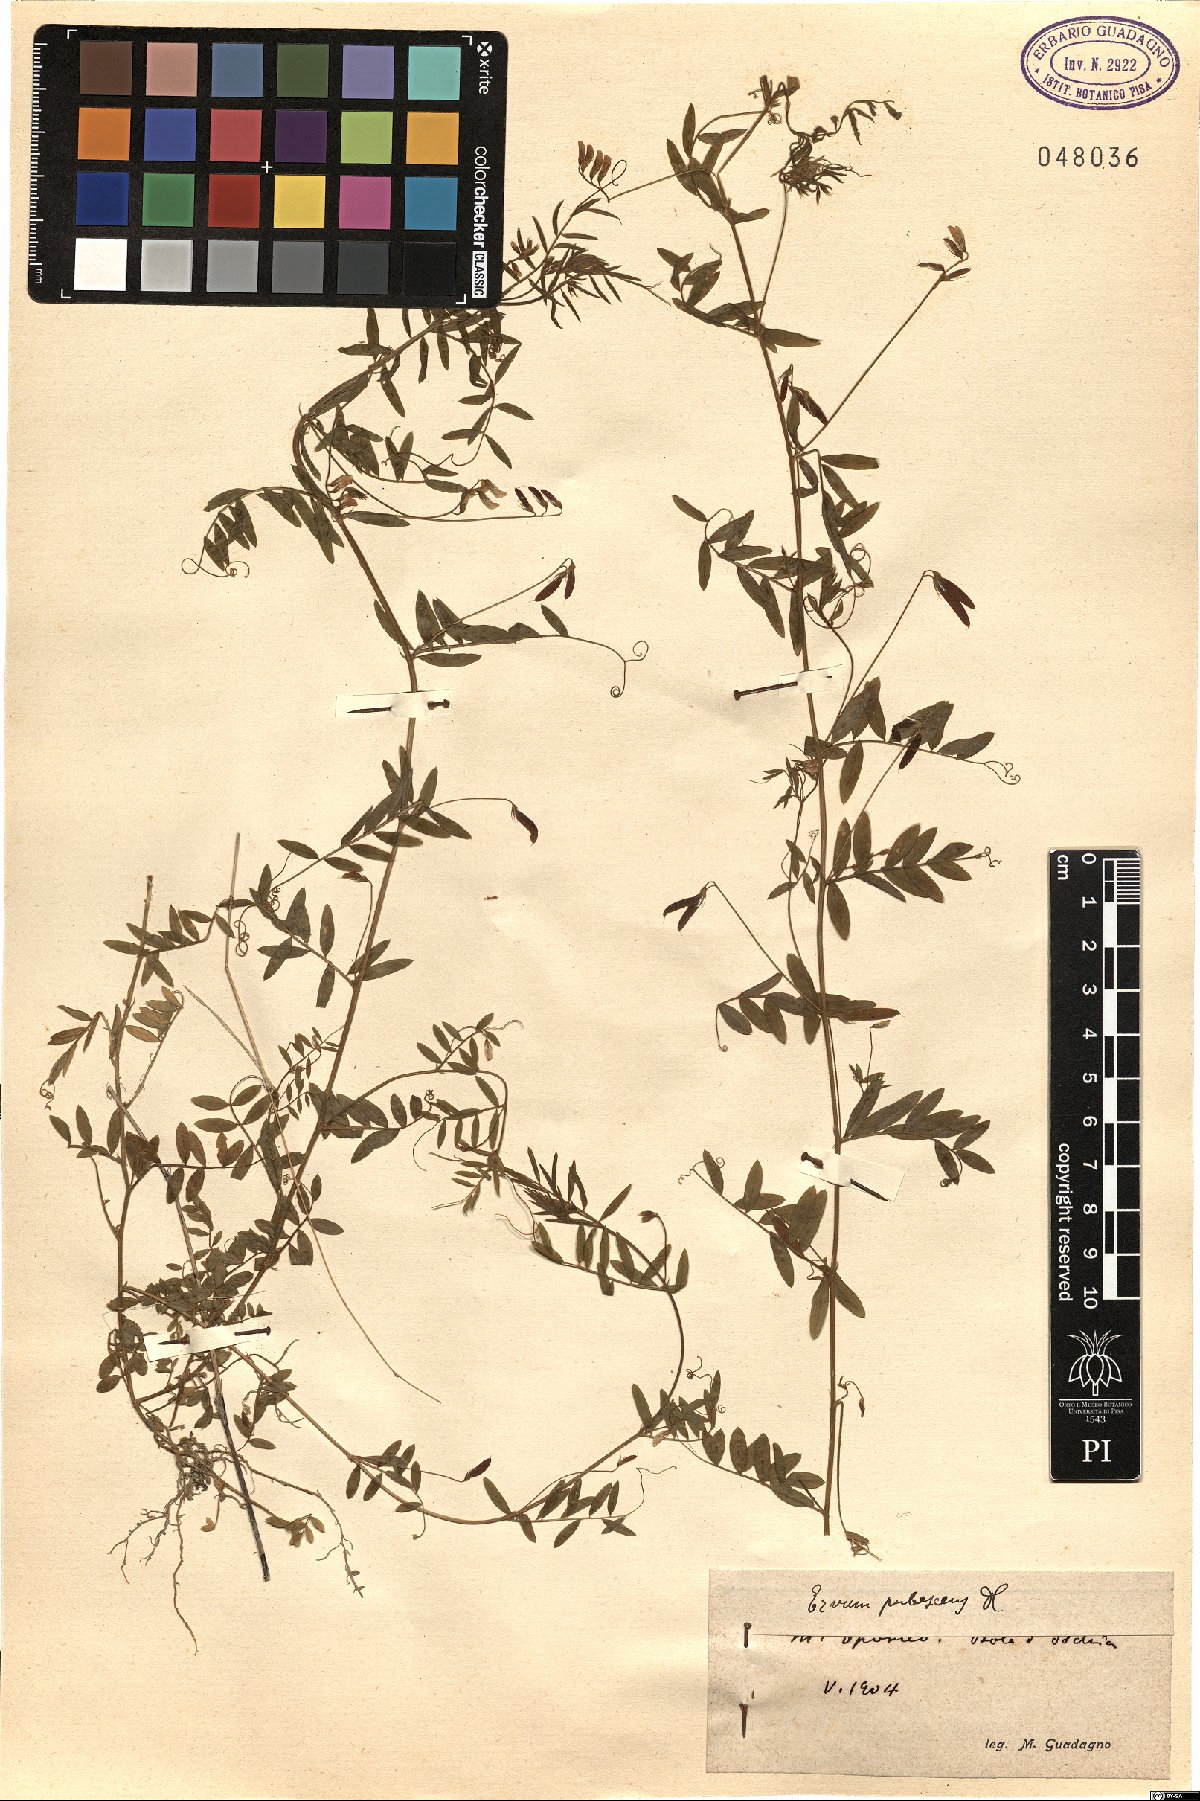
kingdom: Plantae
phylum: Tracheophyta
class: Magnoliopsida
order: Fabales
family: Fabaceae
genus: Vicia
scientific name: Vicia pubescens
